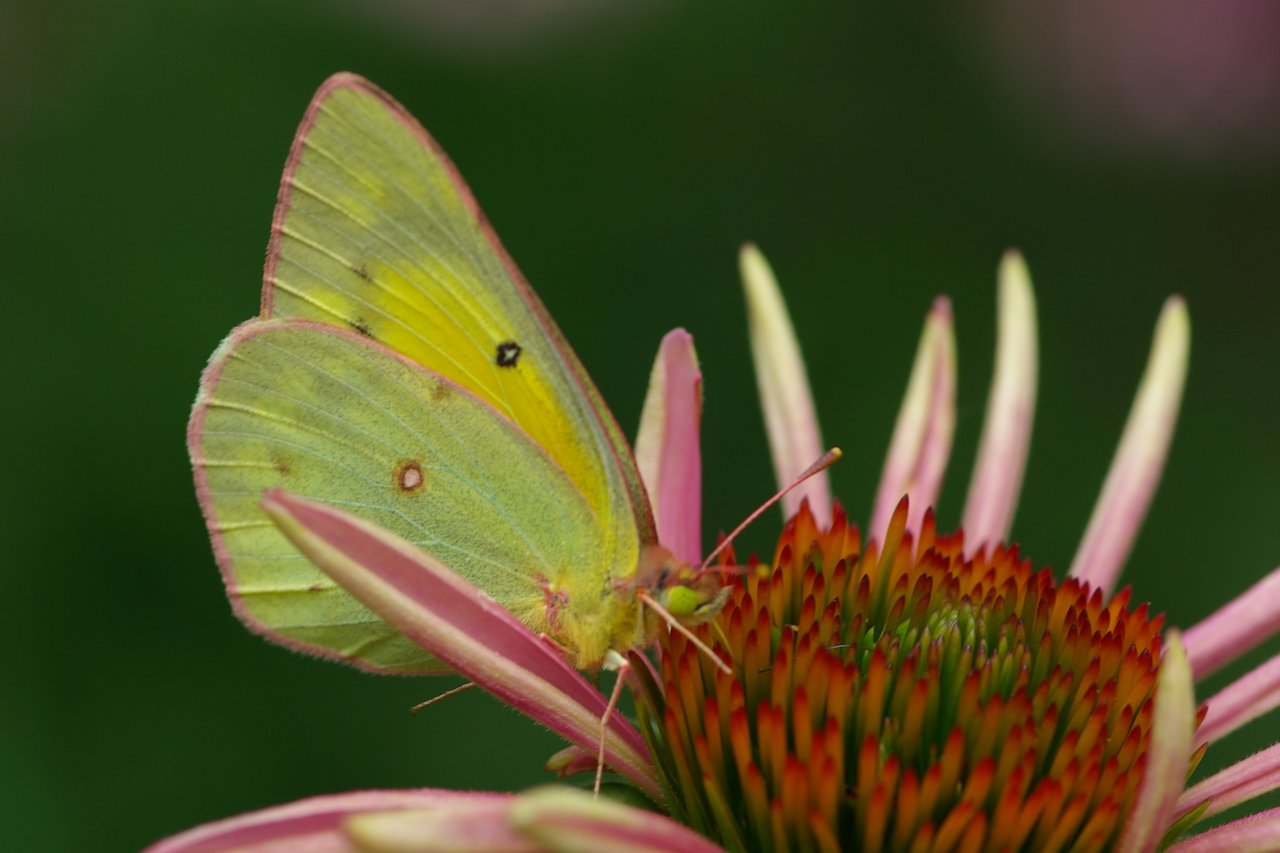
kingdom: Animalia
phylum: Arthropoda
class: Insecta
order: Lepidoptera
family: Pieridae
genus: Colias
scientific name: Colias eurytheme
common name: Orange Sulphur
